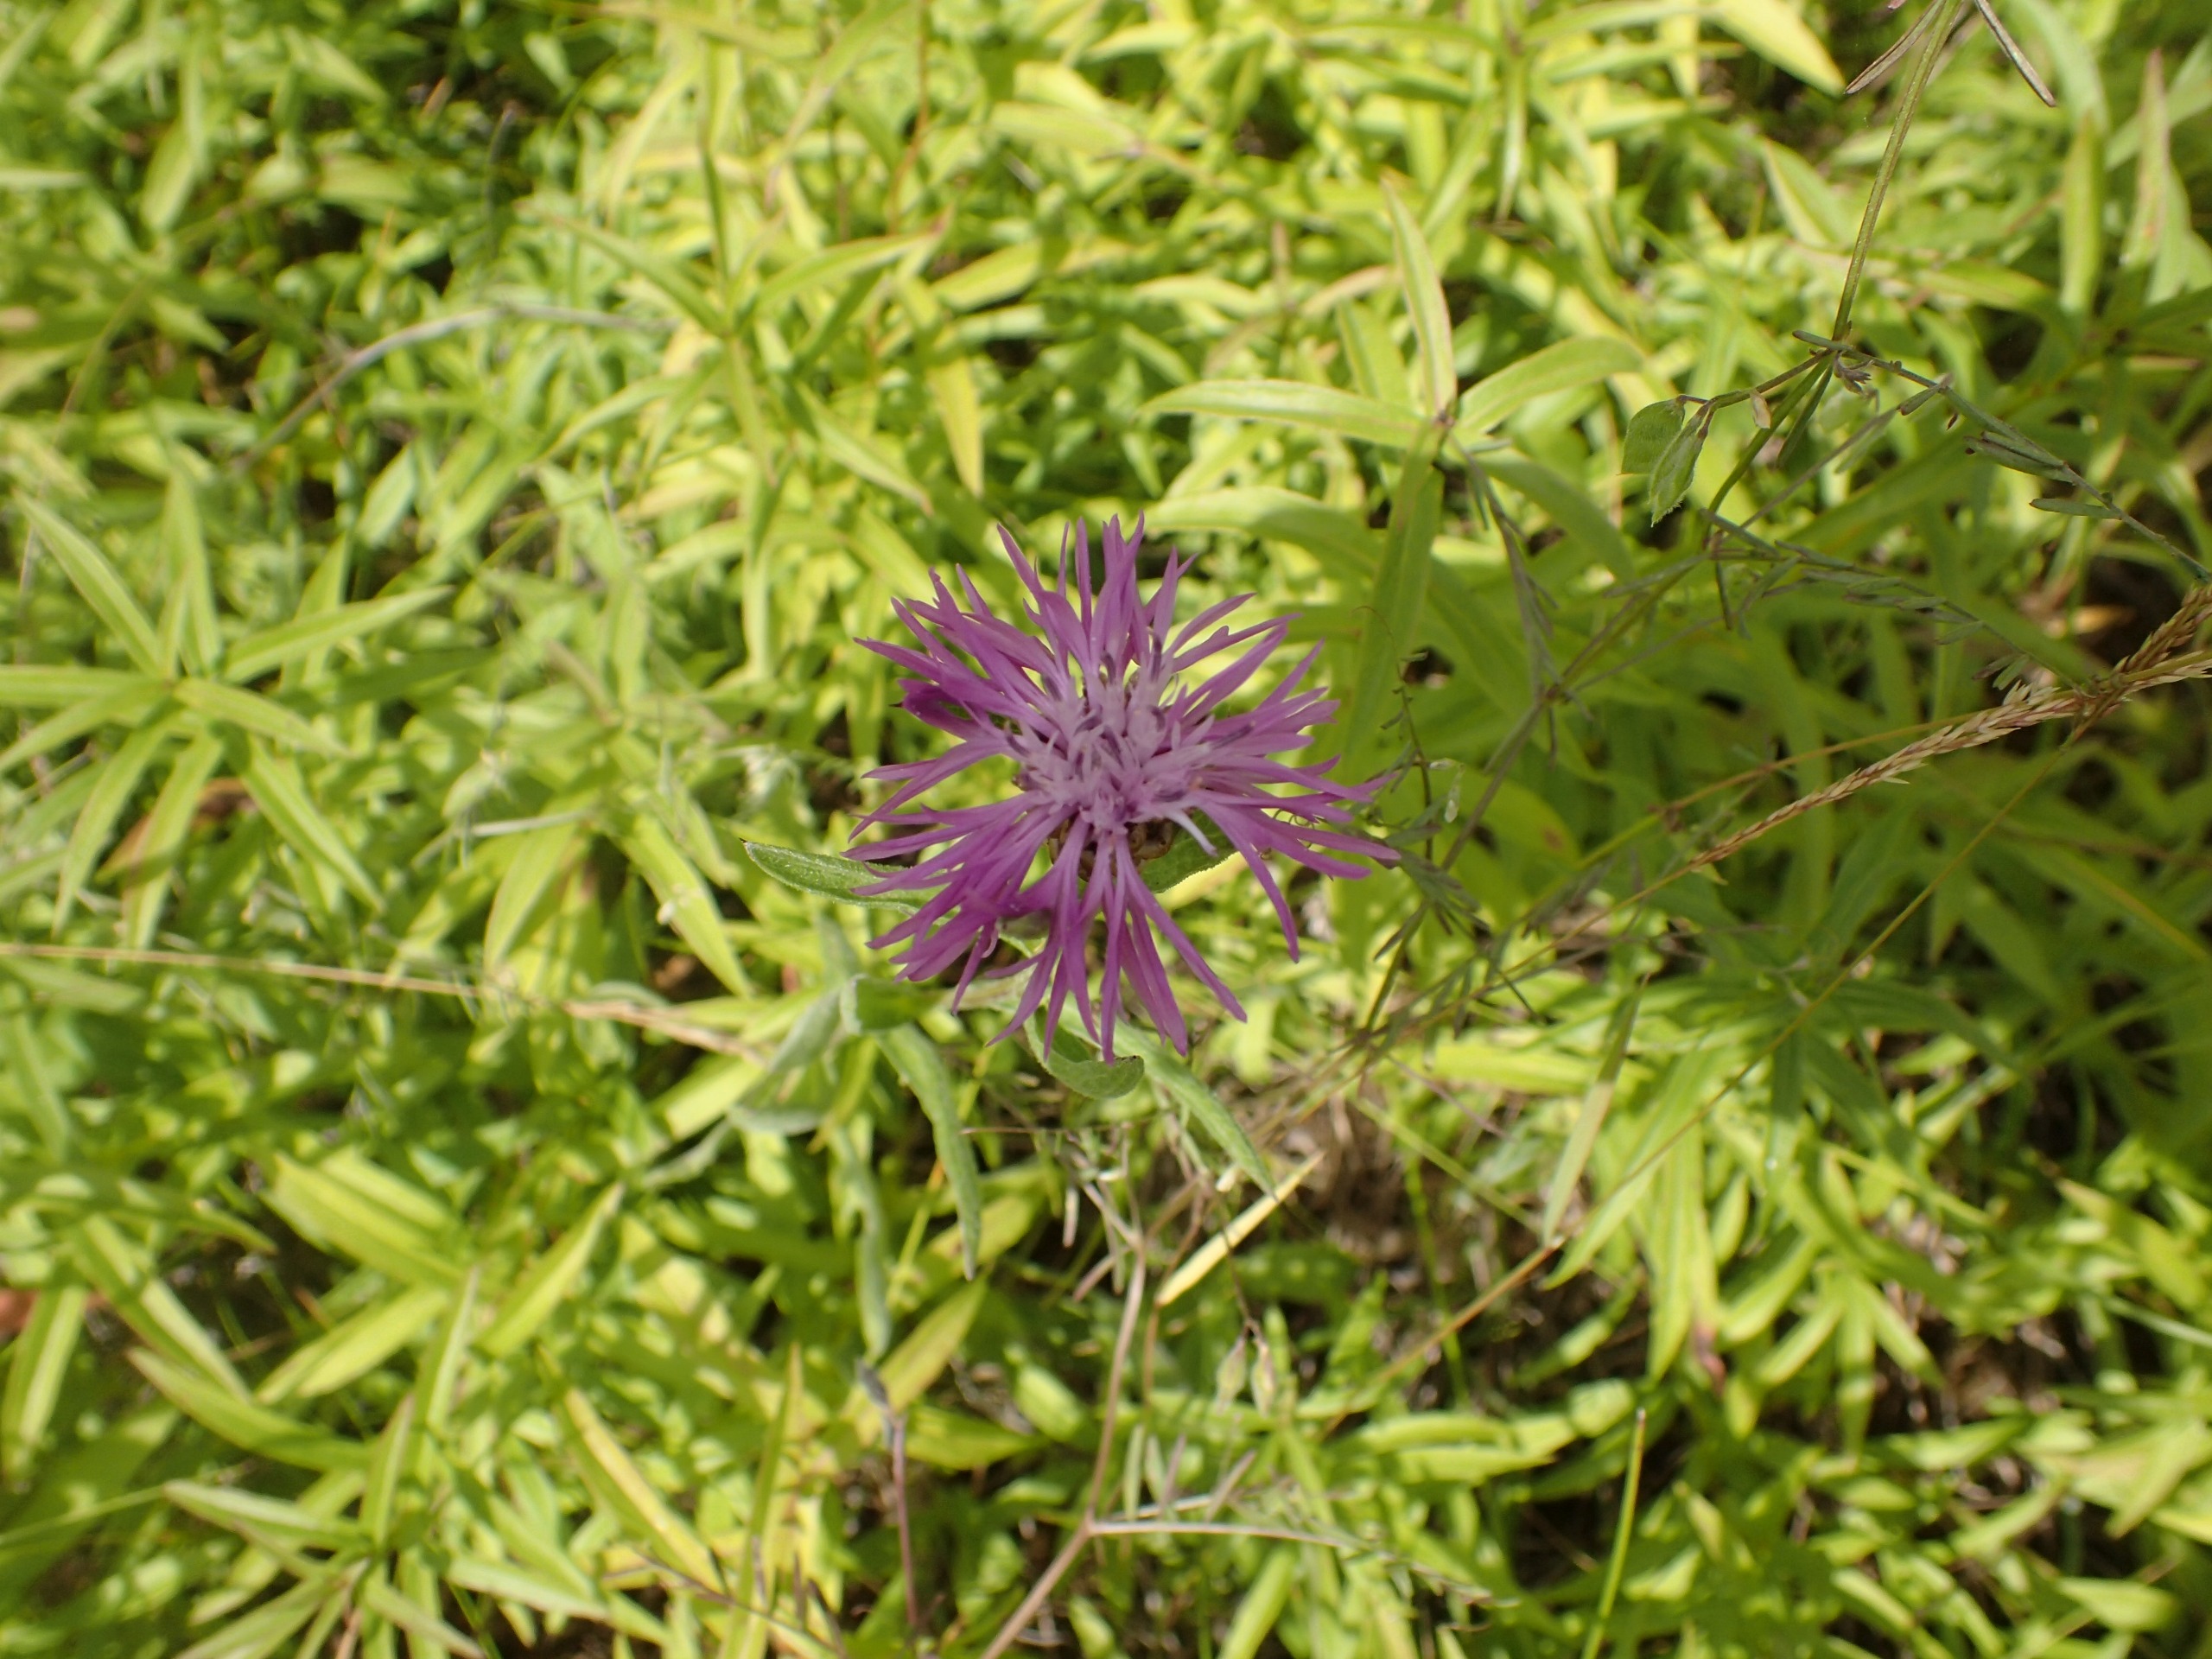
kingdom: Plantae
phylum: Tracheophyta
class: Magnoliopsida
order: Asterales
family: Asteraceae
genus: Centaurea
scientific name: Centaurea jacea
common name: Almindelig knopurt
